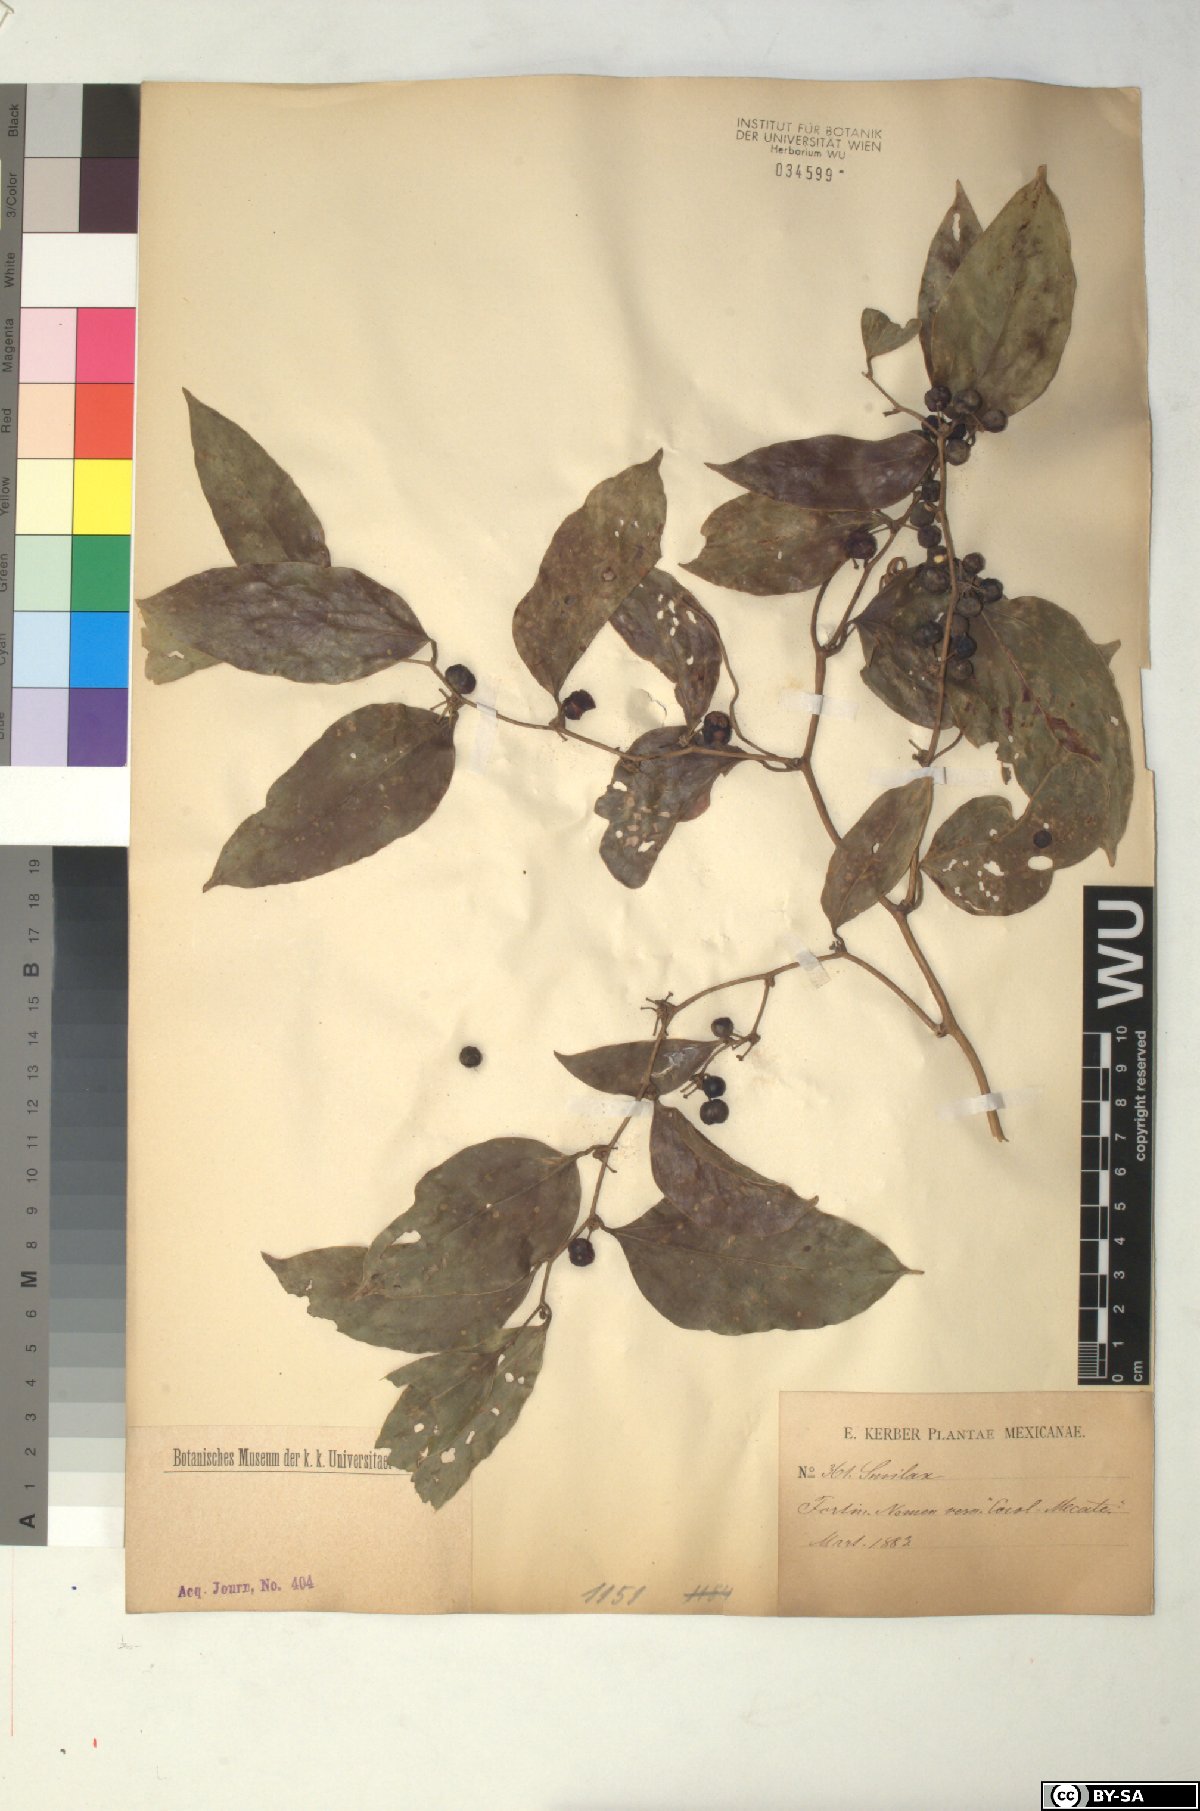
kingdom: Plantae
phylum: Tracheophyta
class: Liliopsida
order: Liliales
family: Smilacaceae
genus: Smilax
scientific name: Smilax
